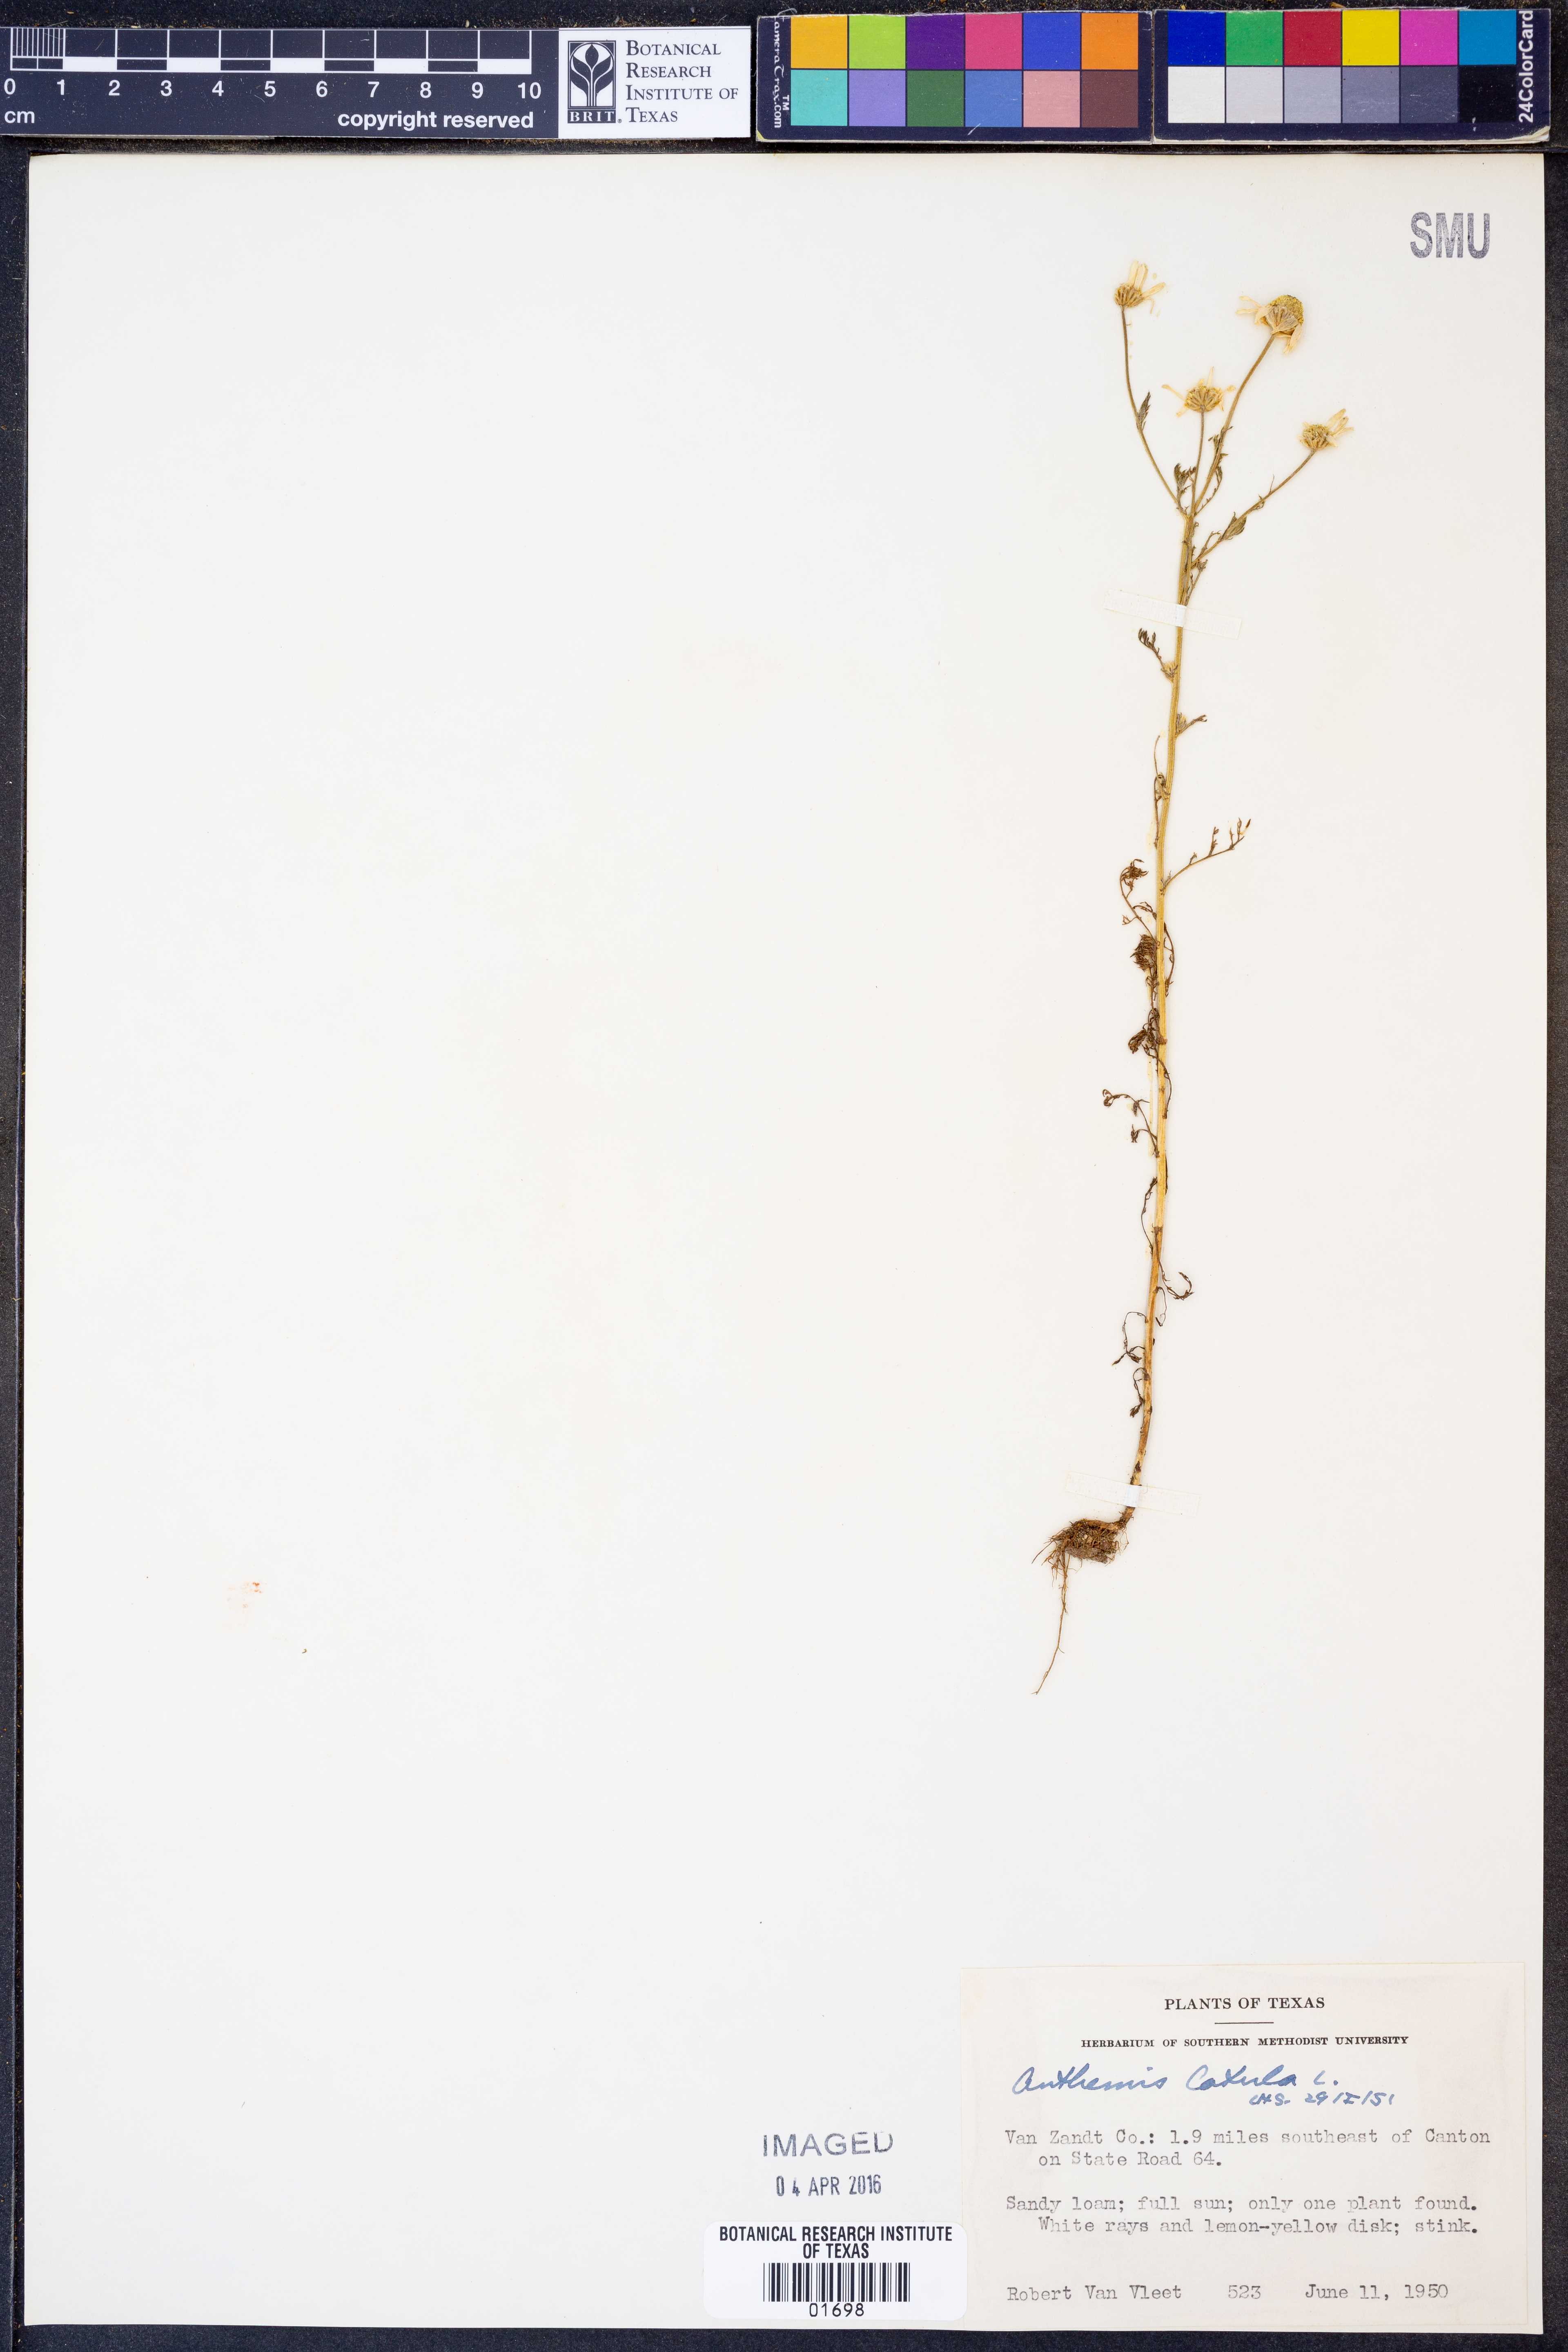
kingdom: Plantae
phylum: Tracheophyta
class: Magnoliopsida
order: Asterales
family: Asteraceae
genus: Anthemis
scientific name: Anthemis cotula
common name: Stinking chamomile
